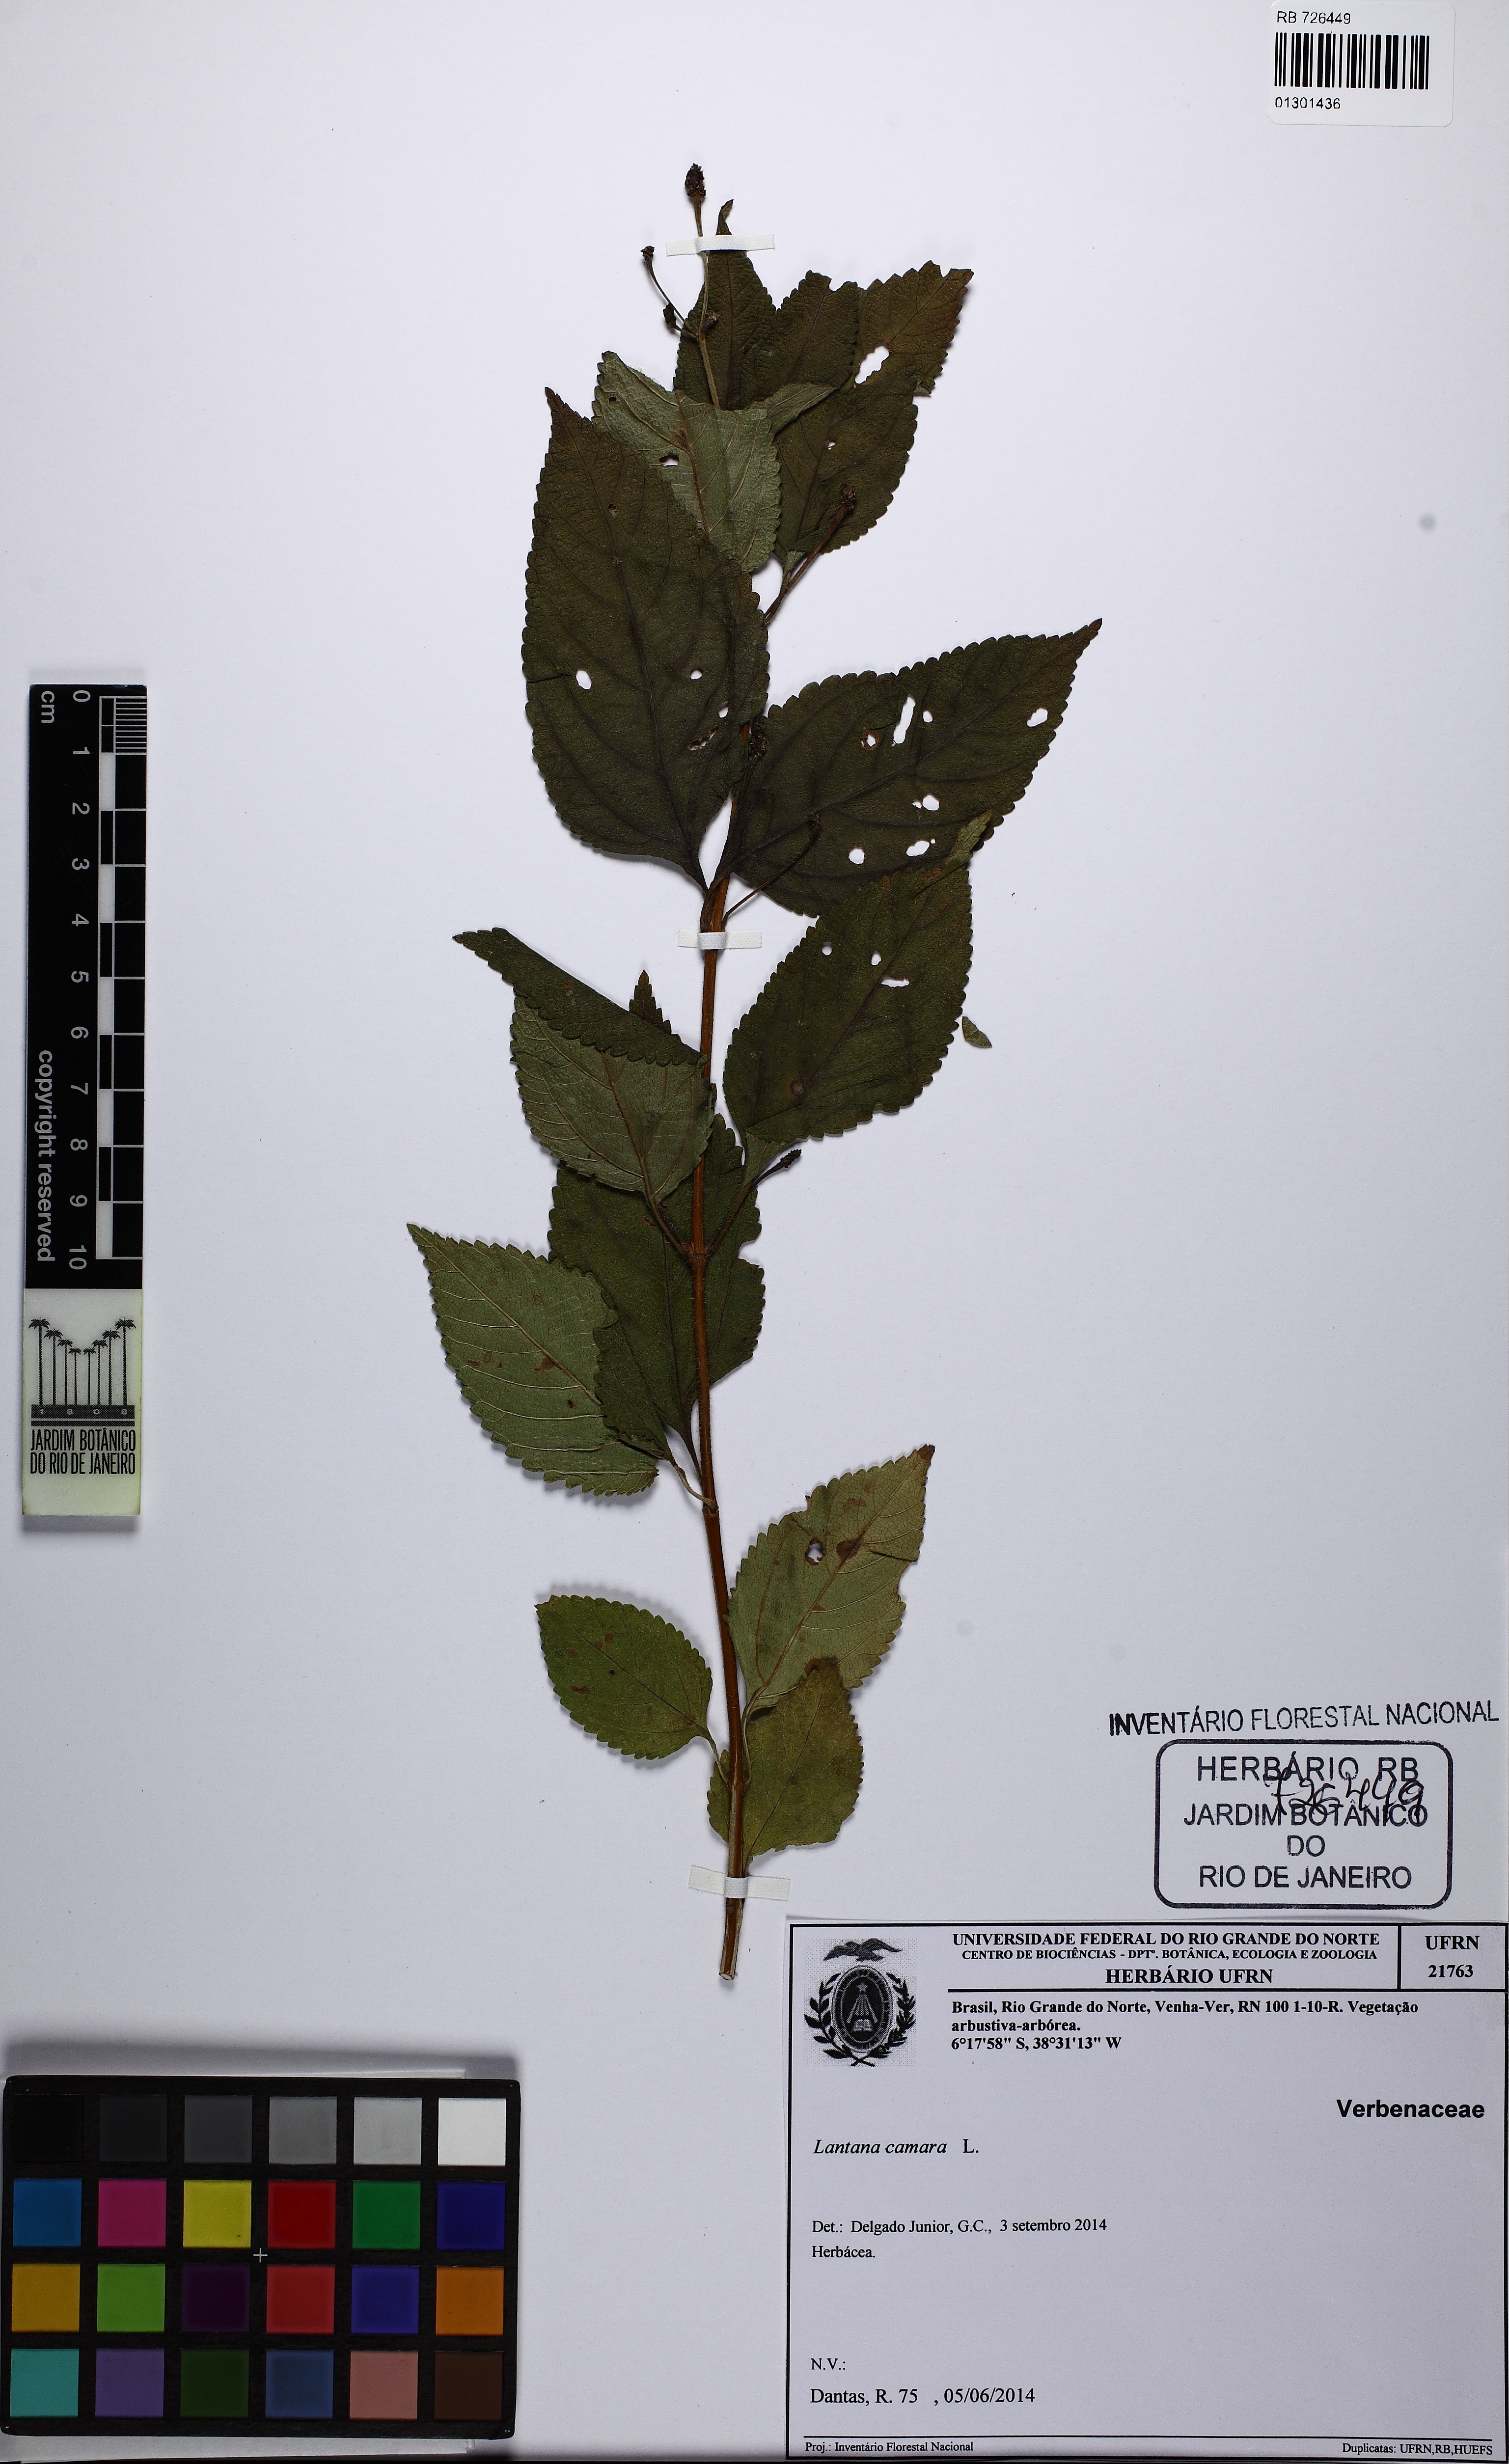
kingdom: Plantae
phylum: Tracheophyta
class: Magnoliopsida
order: Lamiales
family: Verbenaceae
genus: Lantana
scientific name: Lantana camara
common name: Lantana
